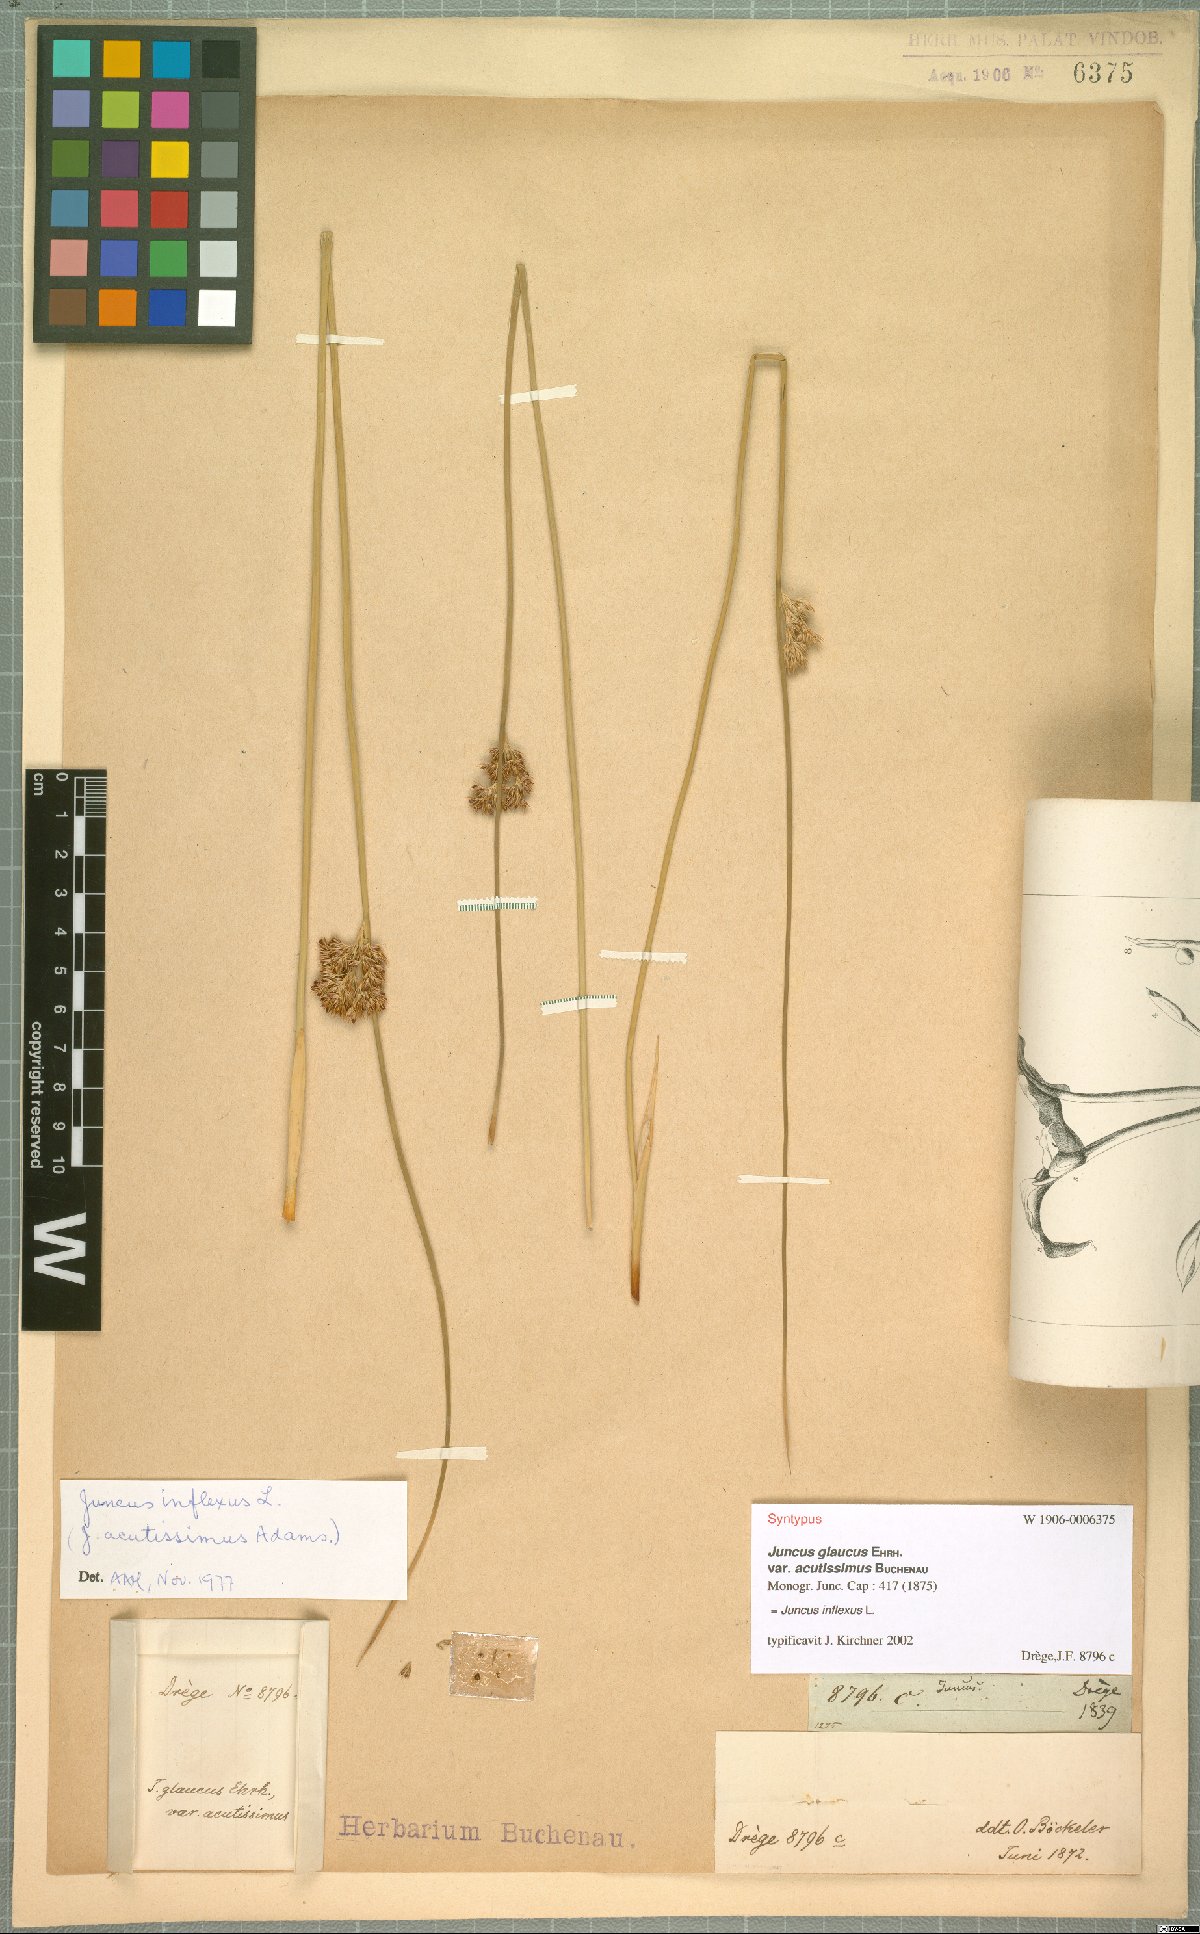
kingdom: Plantae
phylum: Tracheophyta
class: Liliopsida
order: Poales
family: Juncaceae
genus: Juncus
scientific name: Juncus inflexus
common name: Hard rush
